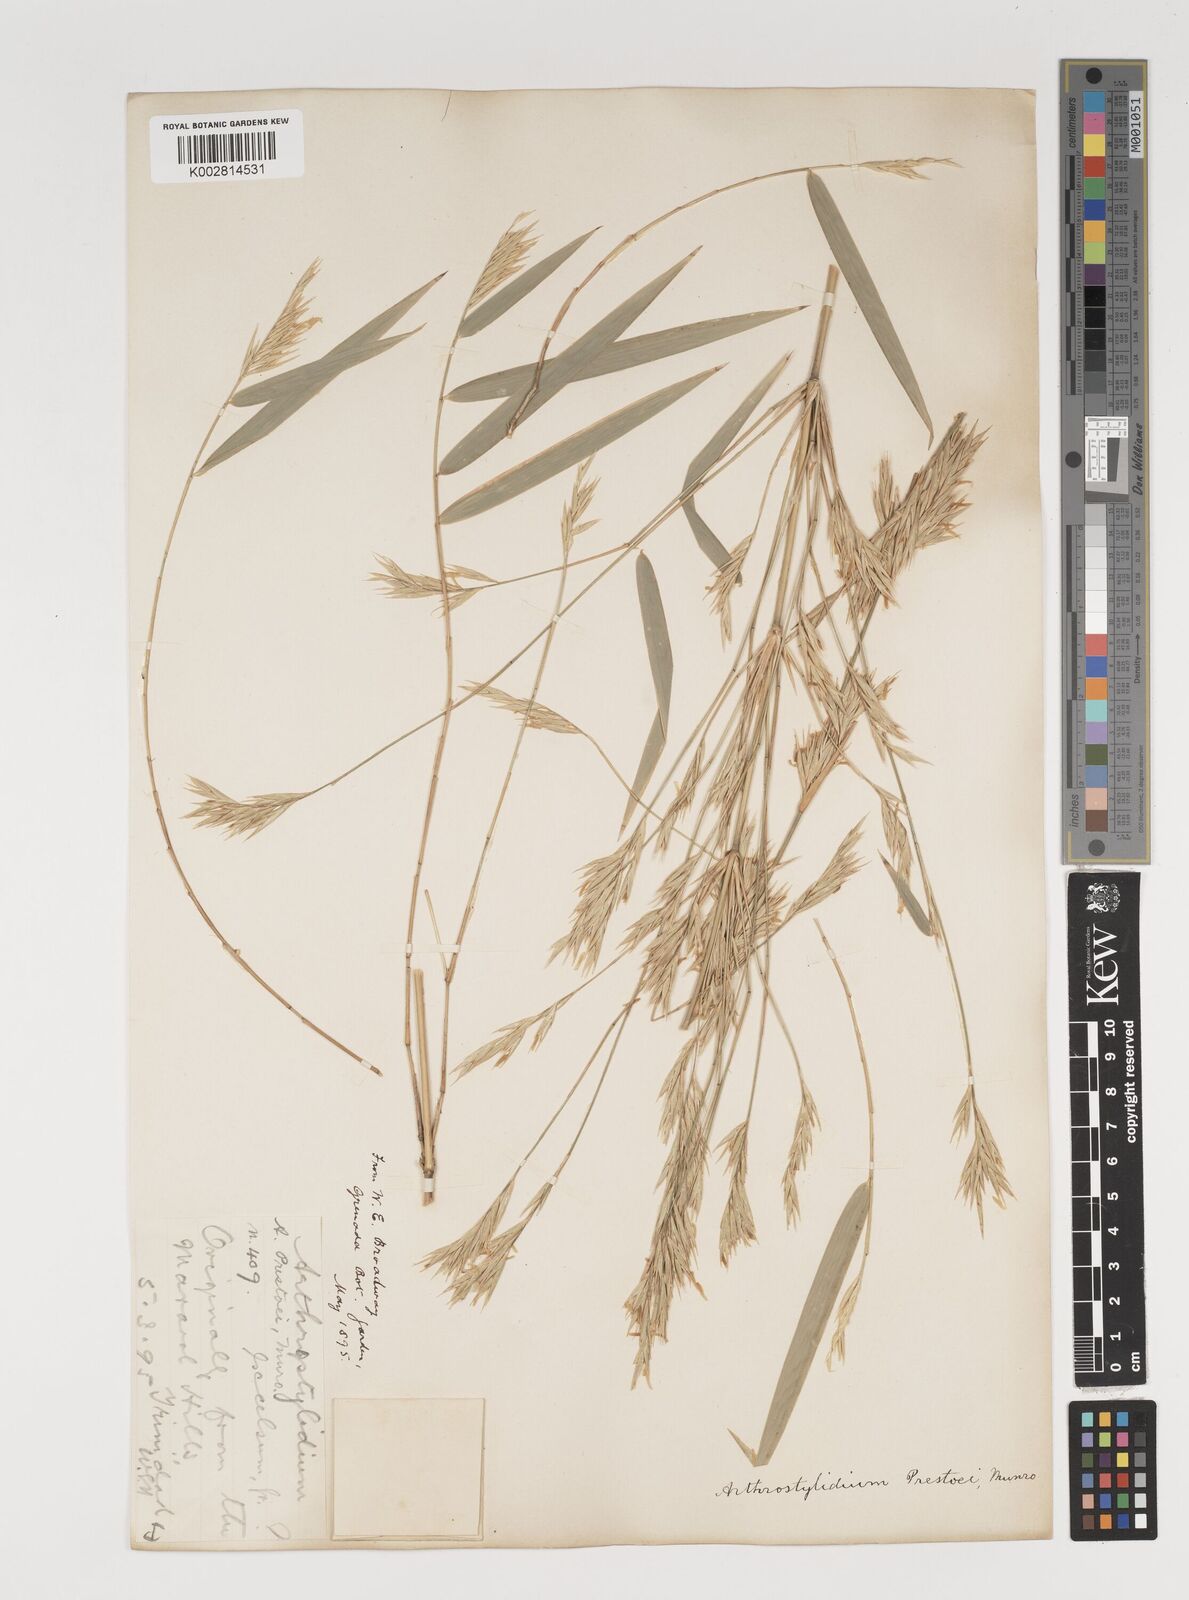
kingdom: Plantae
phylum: Tracheophyta
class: Liliopsida
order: Poales
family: Poaceae
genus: Rhipidocladum
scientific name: Rhipidocladum prestoei
